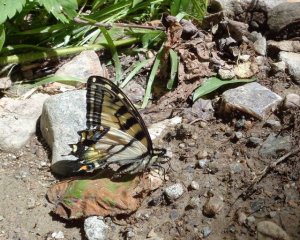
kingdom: Animalia
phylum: Arthropoda
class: Insecta
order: Lepidoptera
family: Papilionidae
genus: Pterourus
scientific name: Pterourus canadensis
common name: Canadian Tiger Swallowtail
